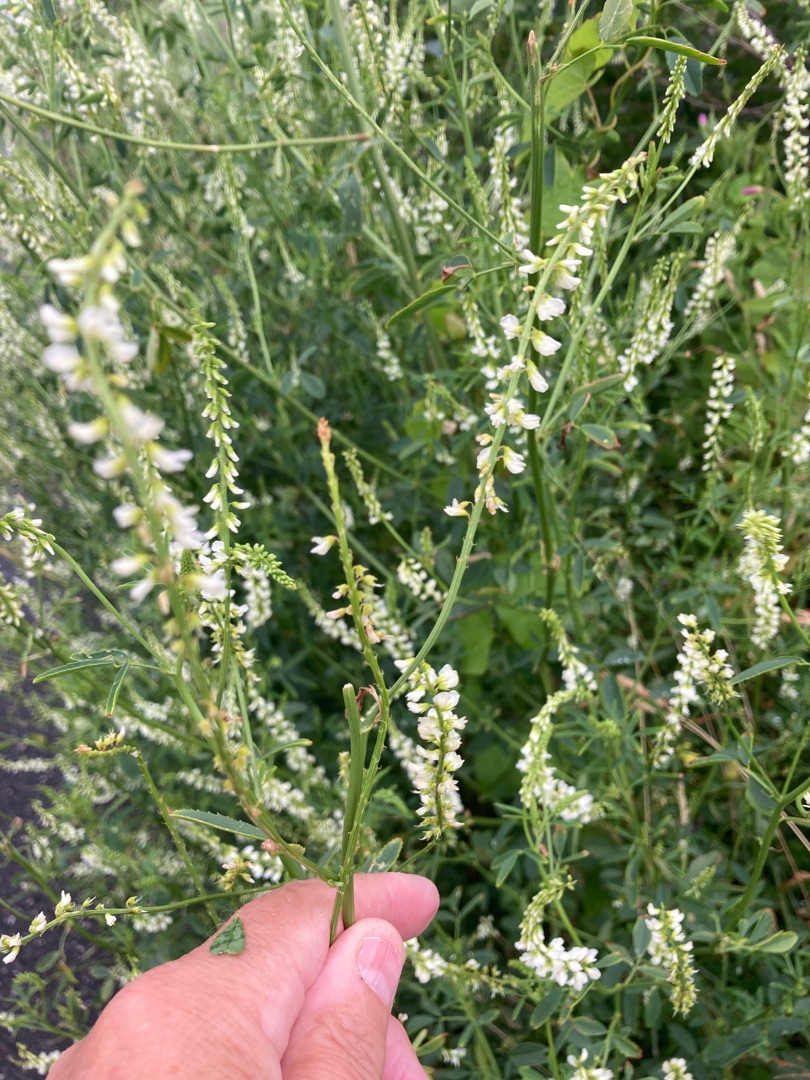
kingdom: Plantae
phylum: Tracheophyta
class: Magnoliopsida
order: Fabales
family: Fabaceae
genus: Melilotus
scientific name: Melilotus albus
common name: Hvid stenkløver
